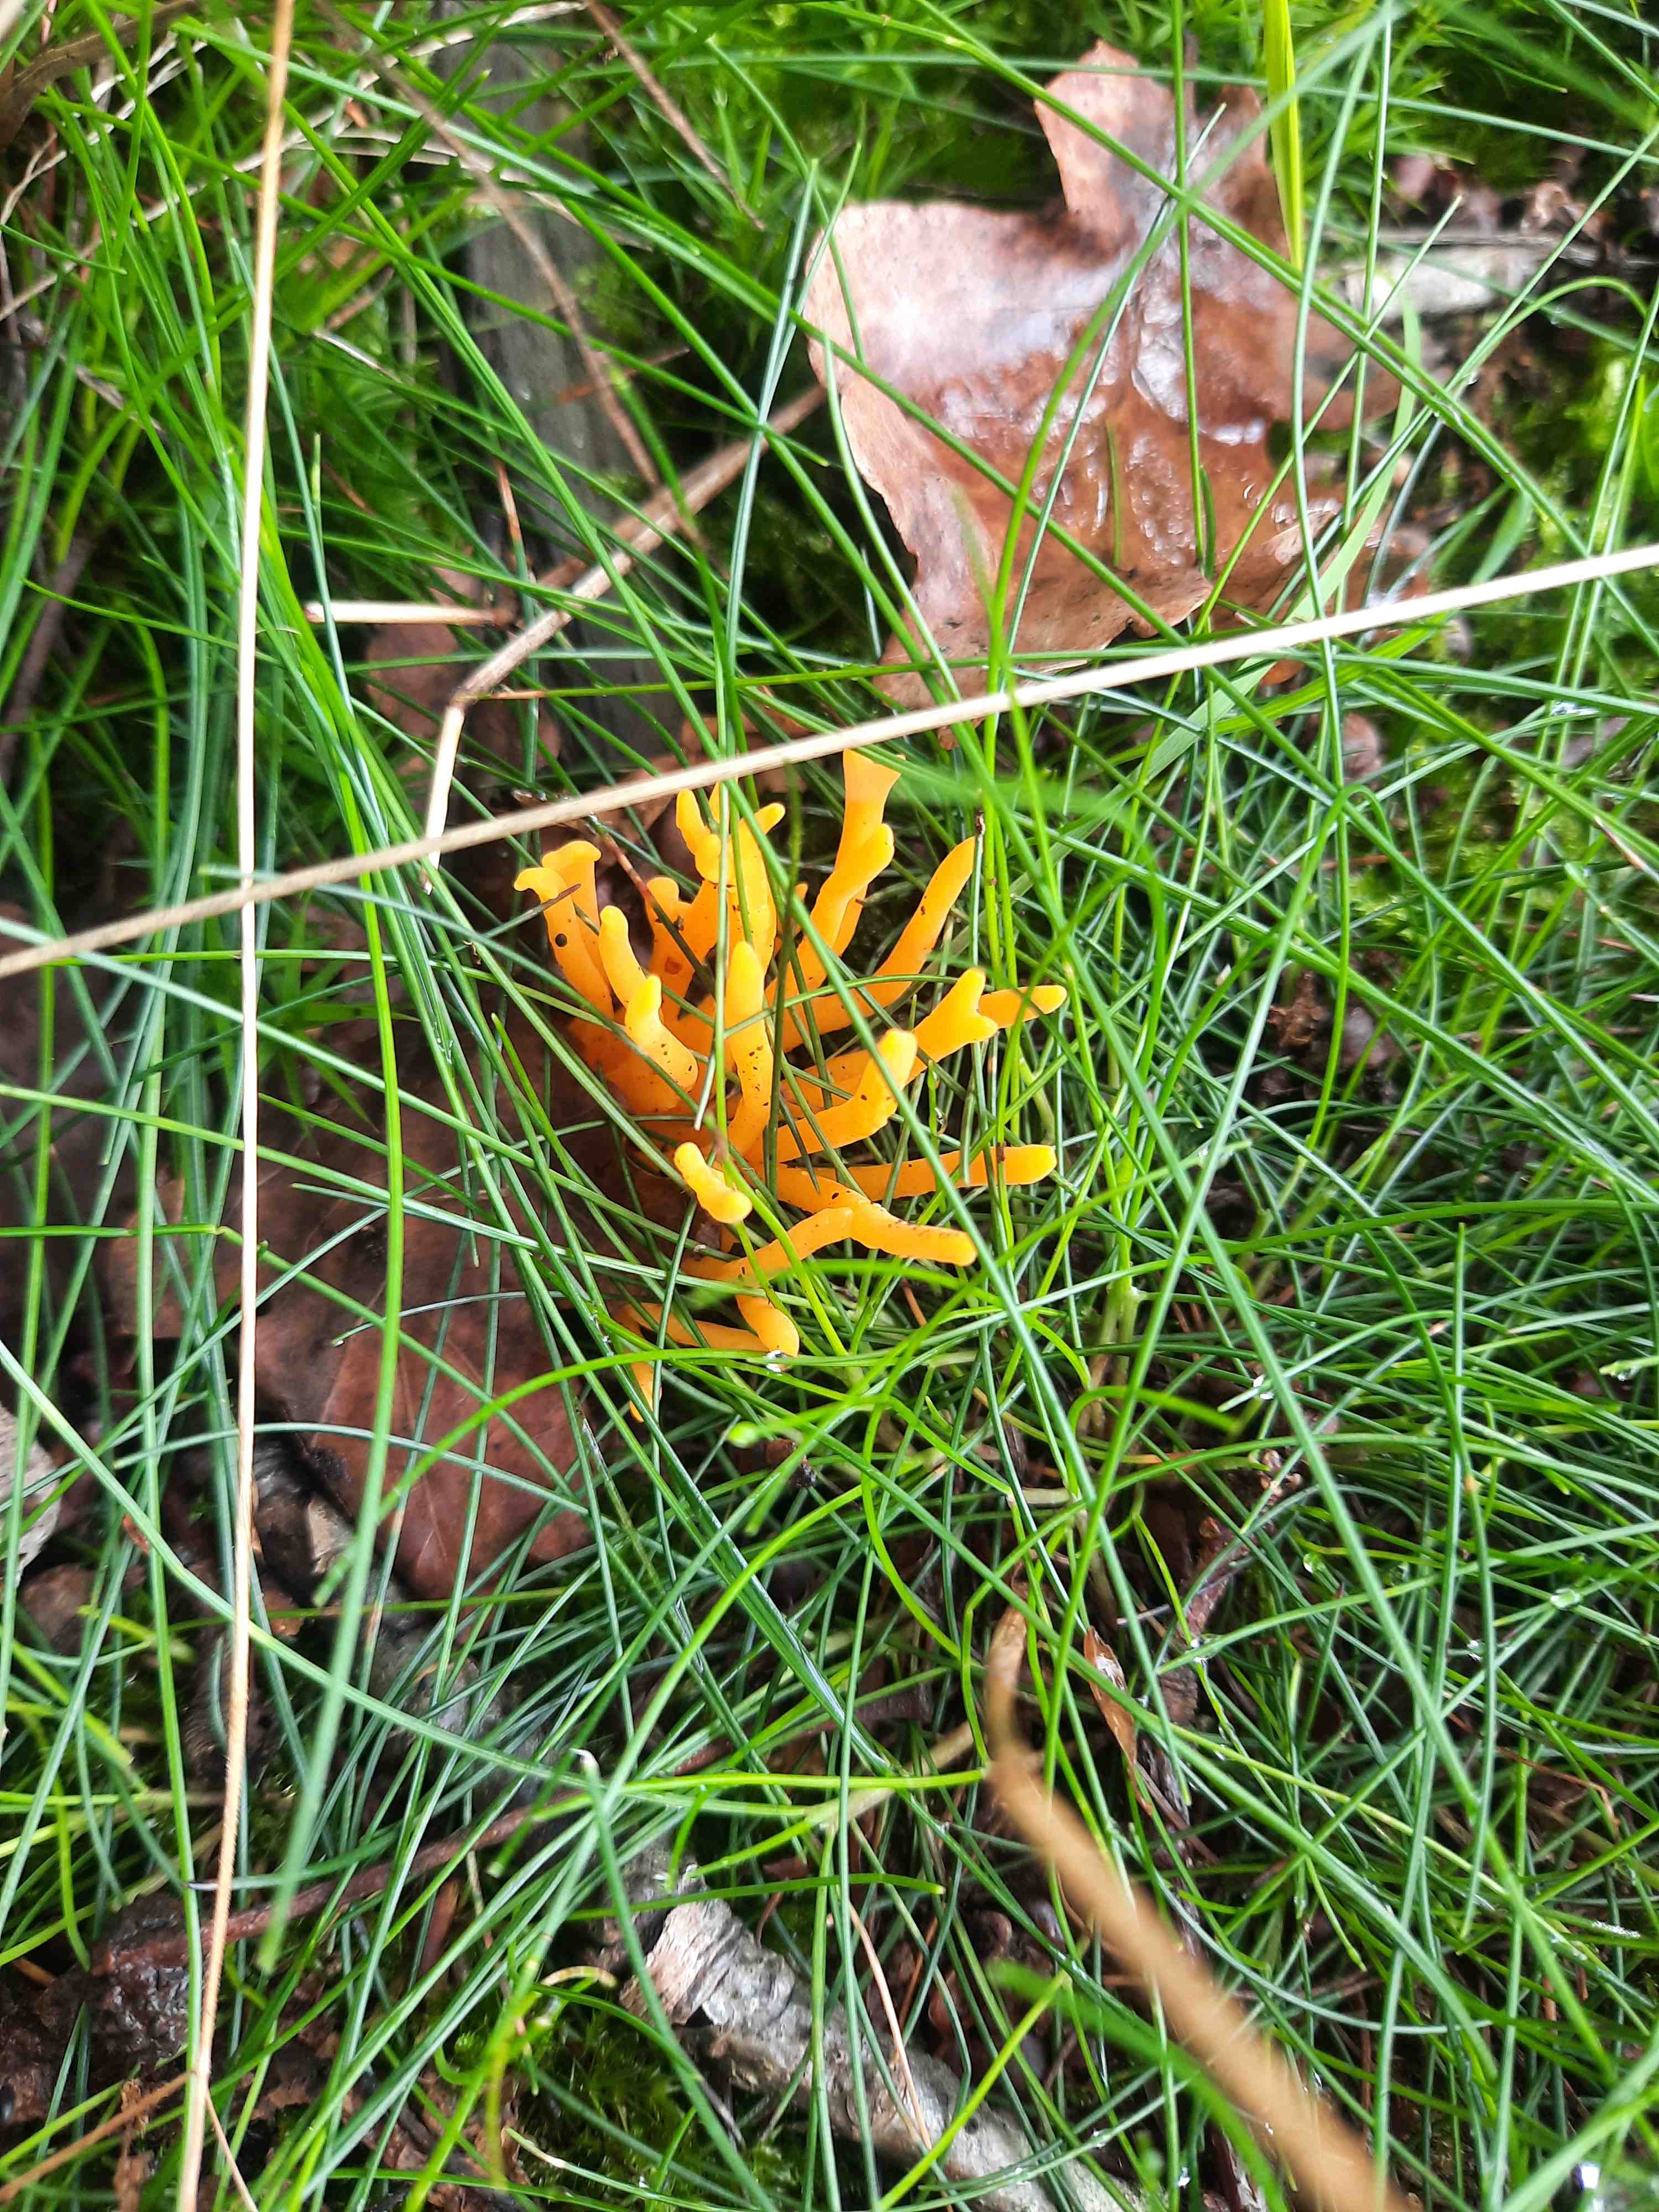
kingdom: Fungi
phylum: Basidiomycota
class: Dacrymycetes
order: Dacrymycetales
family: Dacrymycetaceae
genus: Calocera
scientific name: Calocera viscosa
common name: almindelig guldgaffel
